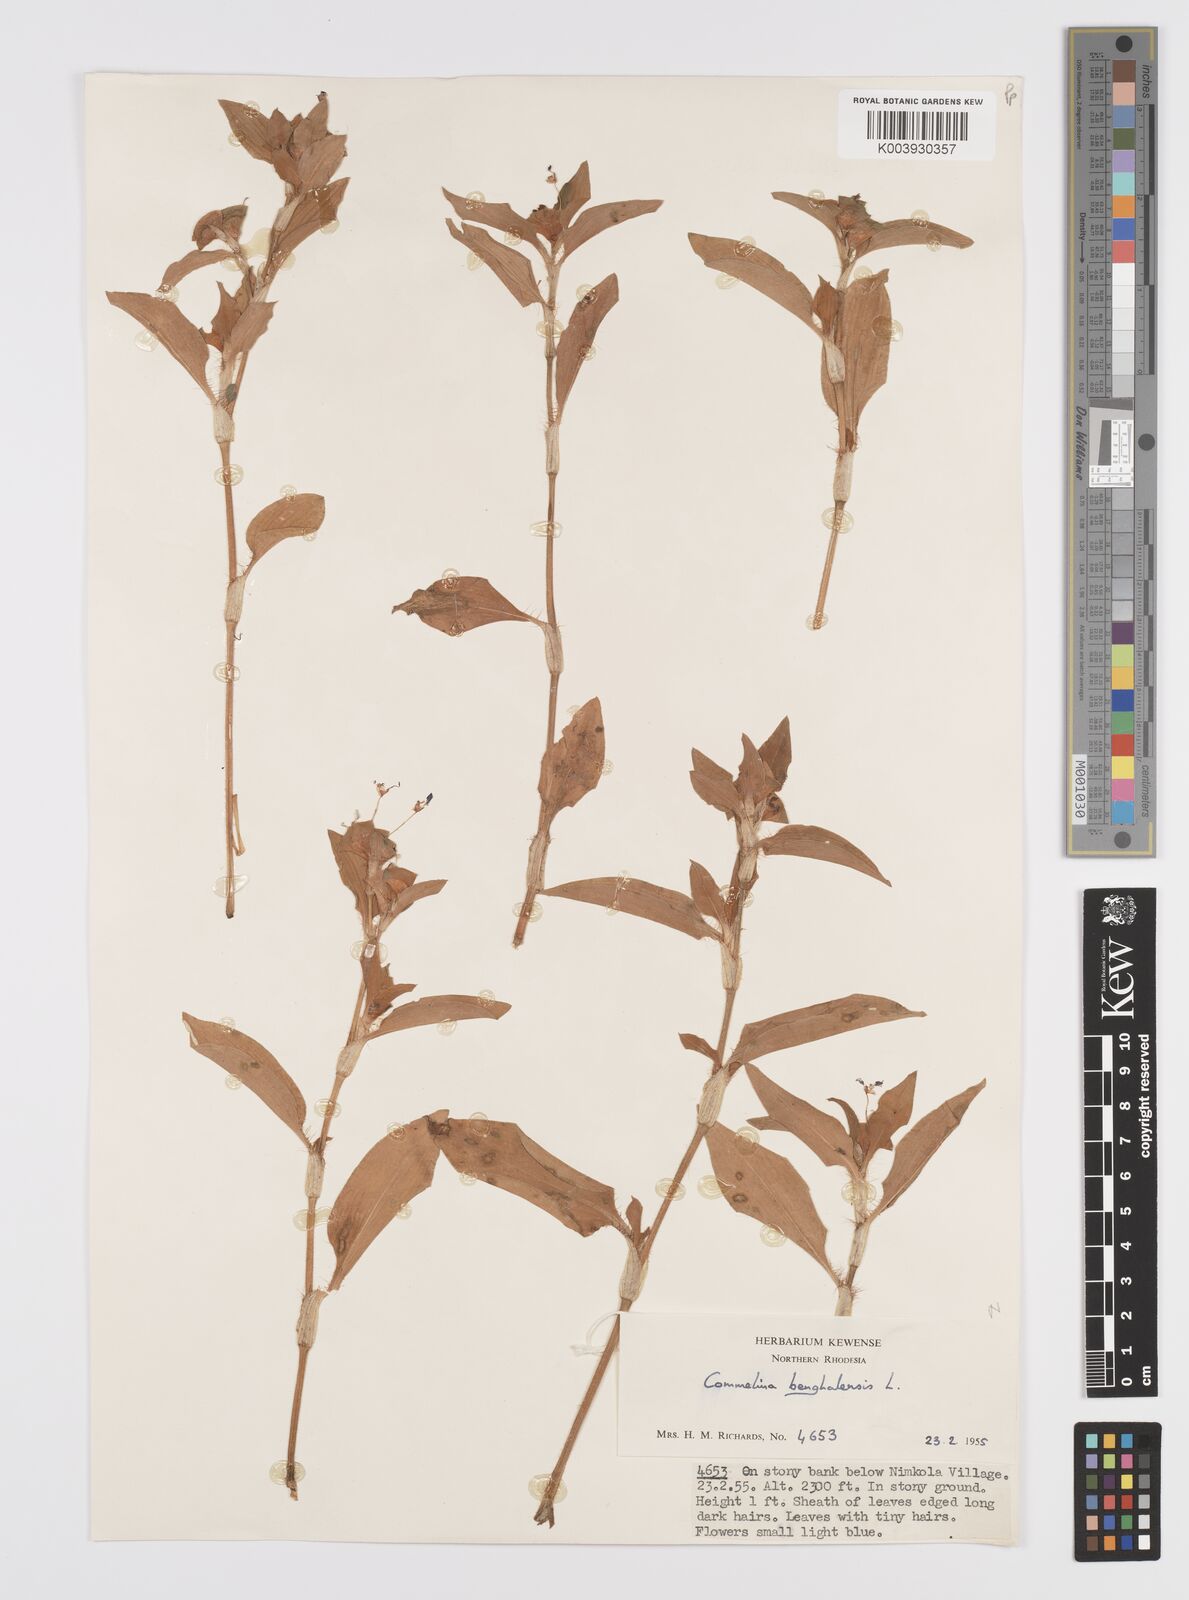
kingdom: Plantae
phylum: Tracheophyta
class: Liliopsida
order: Commelinales
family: Commelinaceae
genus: Commelina
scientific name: Commelina benghalensis
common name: Jio
